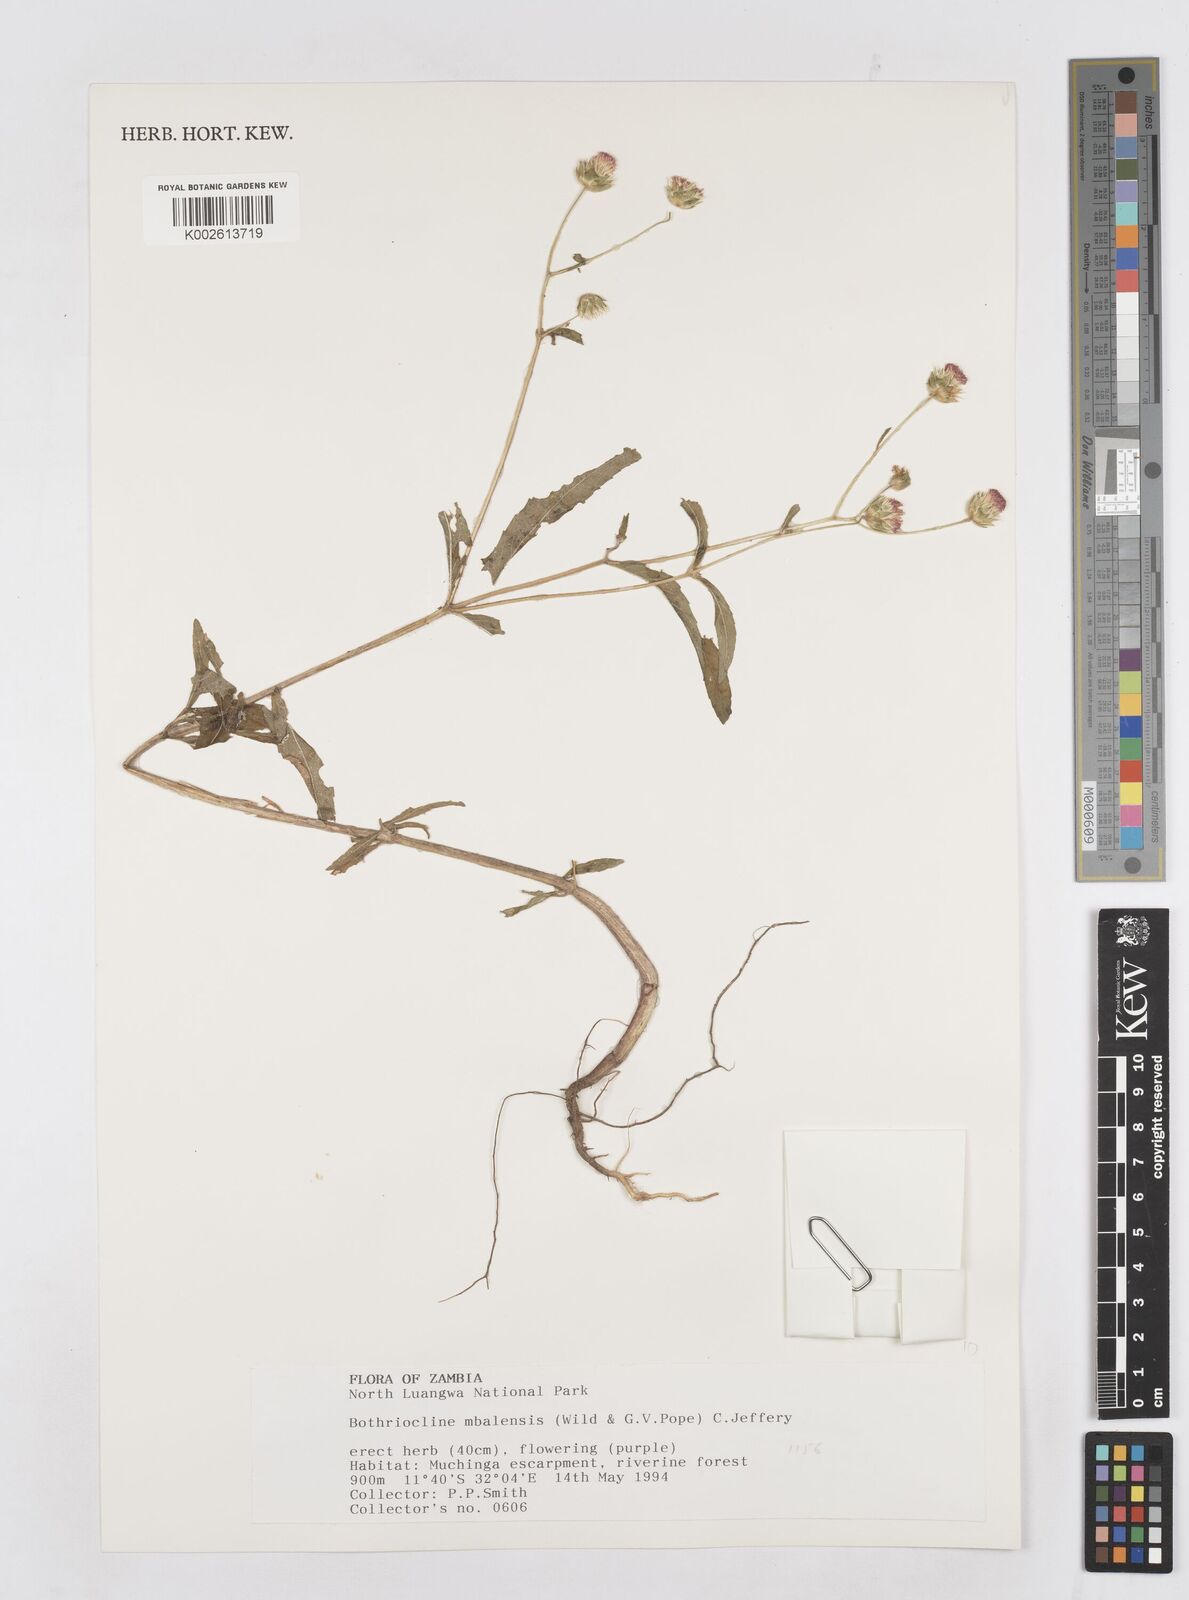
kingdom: Plantae
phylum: Tracheophyta
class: Magnoliopsida
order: Asterales
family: Asteraceae
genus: Bothriocline
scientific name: Bothriocline mbalensis
